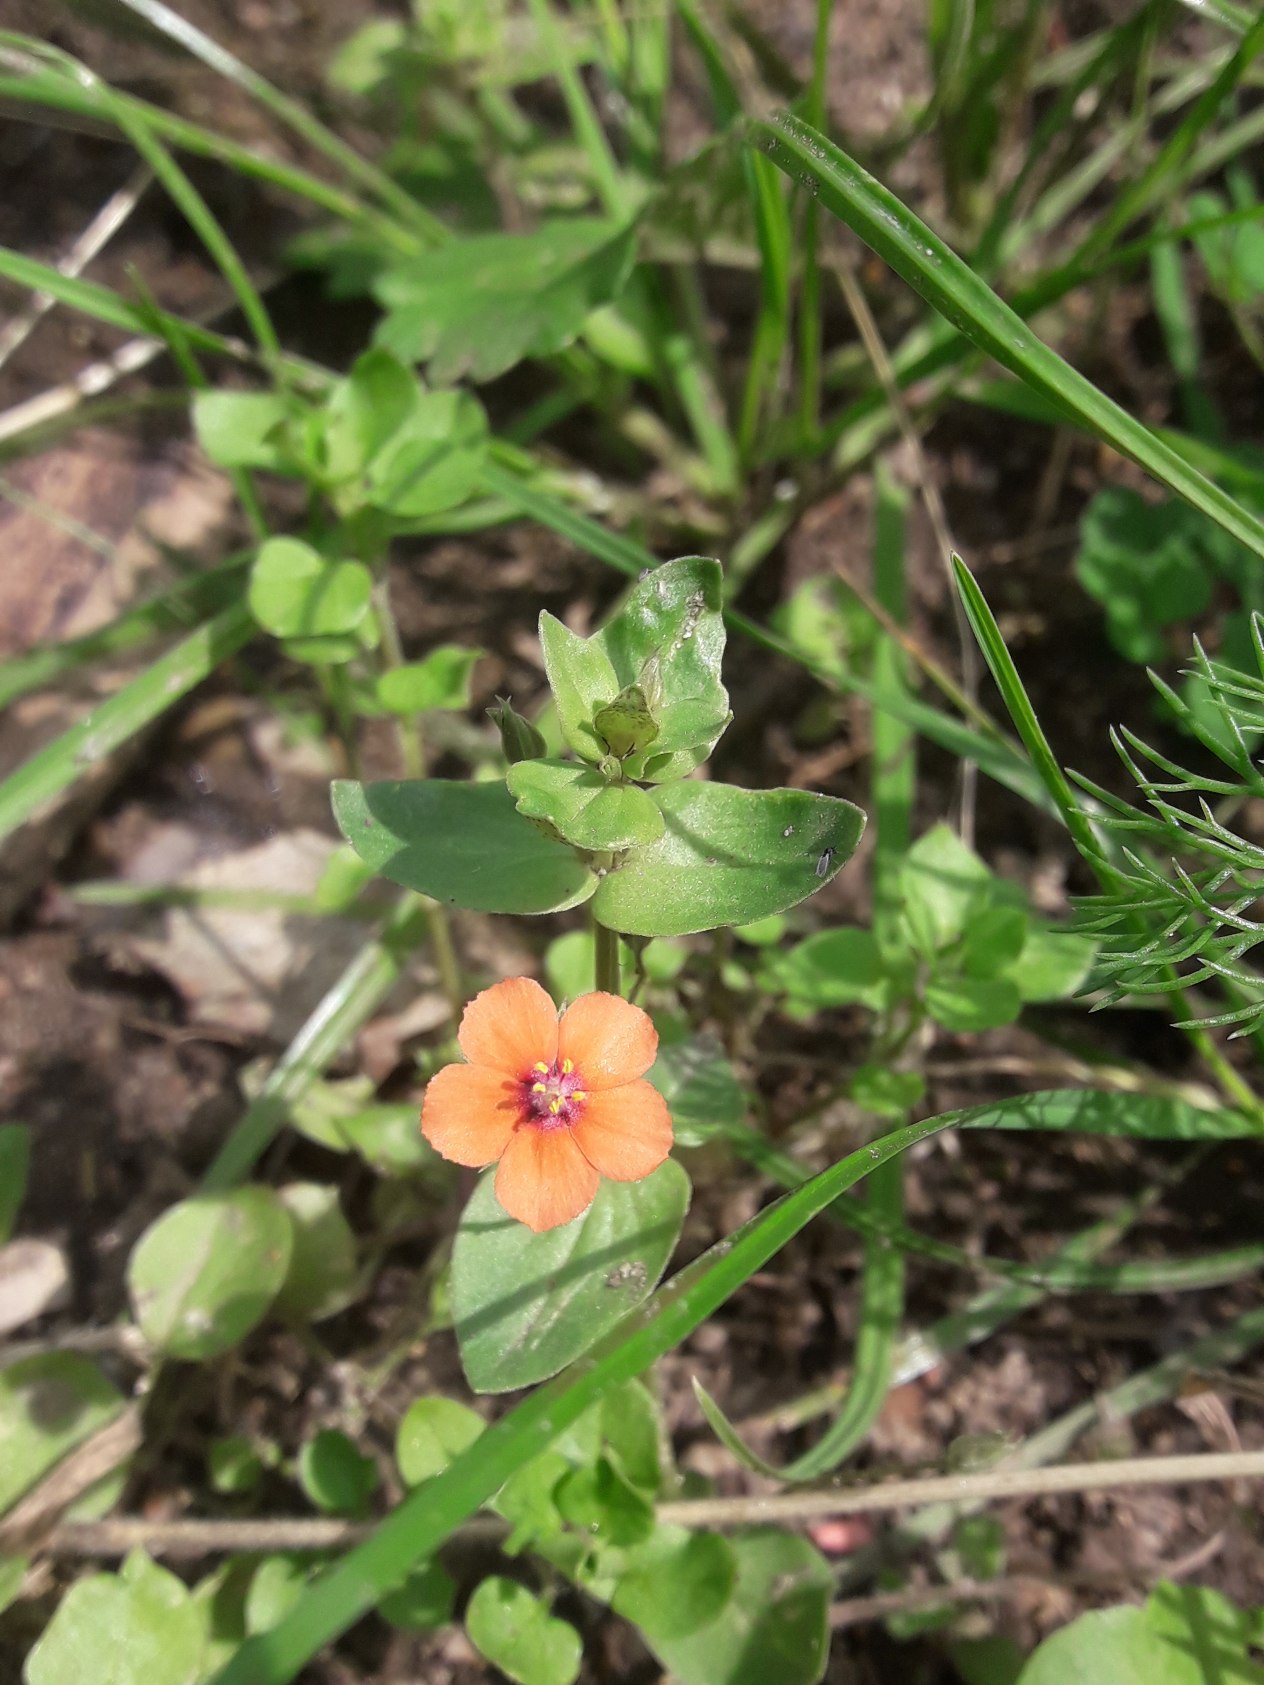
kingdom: Plantae
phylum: Tracheophyta
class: Magnoliopsida
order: Ericales
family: Primulaceae
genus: Lysimachia
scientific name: Lysimachia arvensis
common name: Rød arve
